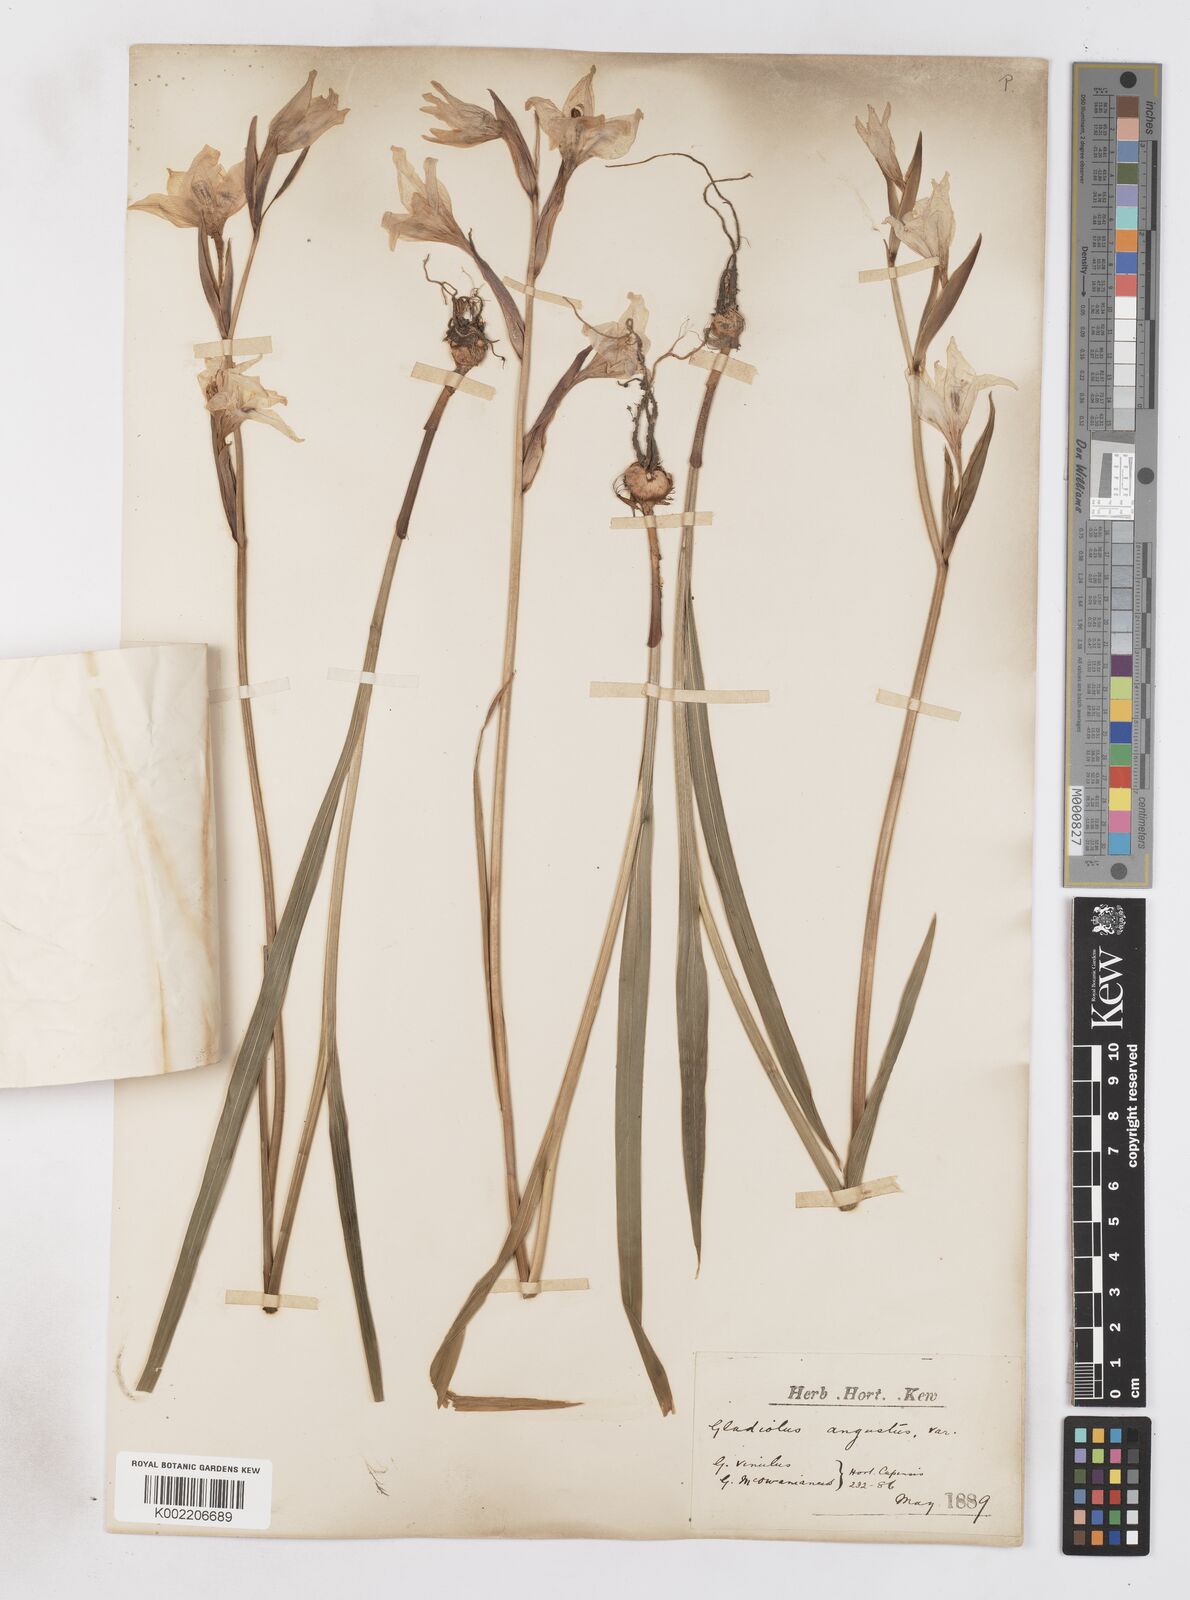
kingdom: Plantae
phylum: Tracheophyta
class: Liliopsida
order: Asparagales
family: Iridaceae
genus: Gladiolus
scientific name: Gladiolus angustus
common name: Painted-lady
